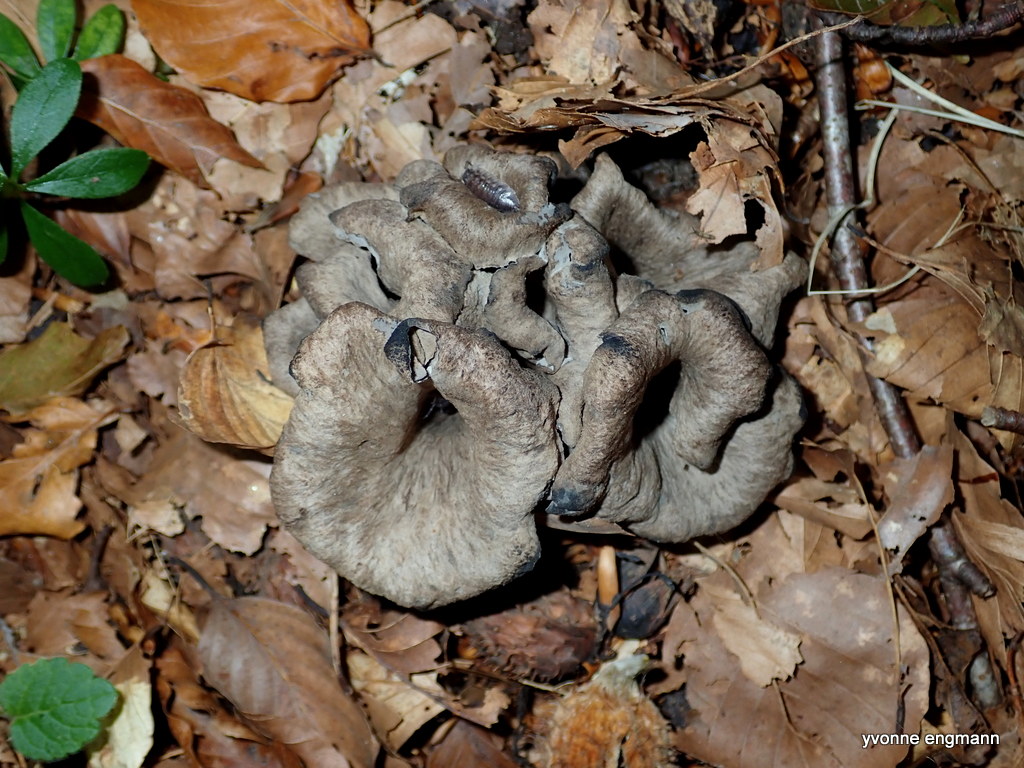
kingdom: Fungi
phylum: Basidiomycota
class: Agaricomycetes
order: Cantharellales
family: Hydnaceae
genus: Craterellus
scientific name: Craterellus cornucopioides
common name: trompetsvamp
